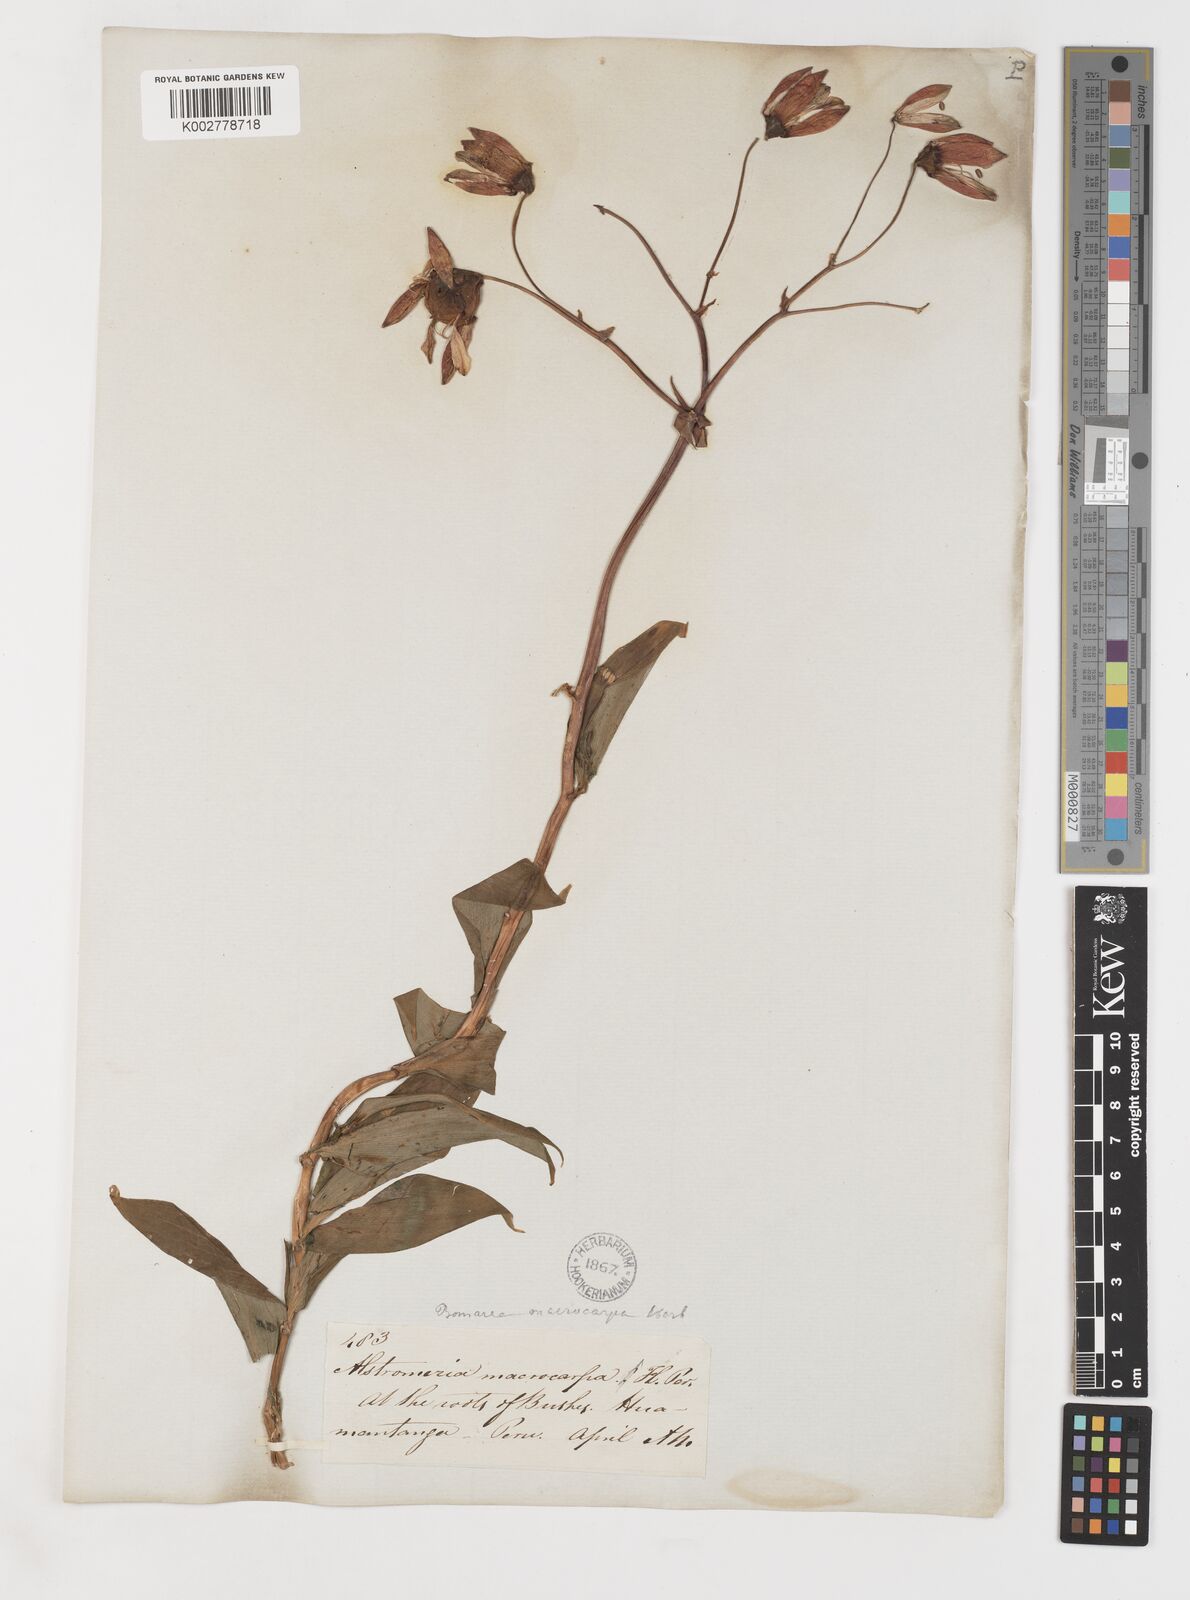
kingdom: Plantae
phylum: Tracheophyta
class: Liliopsida
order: Liliales
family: Alstroemeriaceae
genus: Bomarea
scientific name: Bomarea edulis
